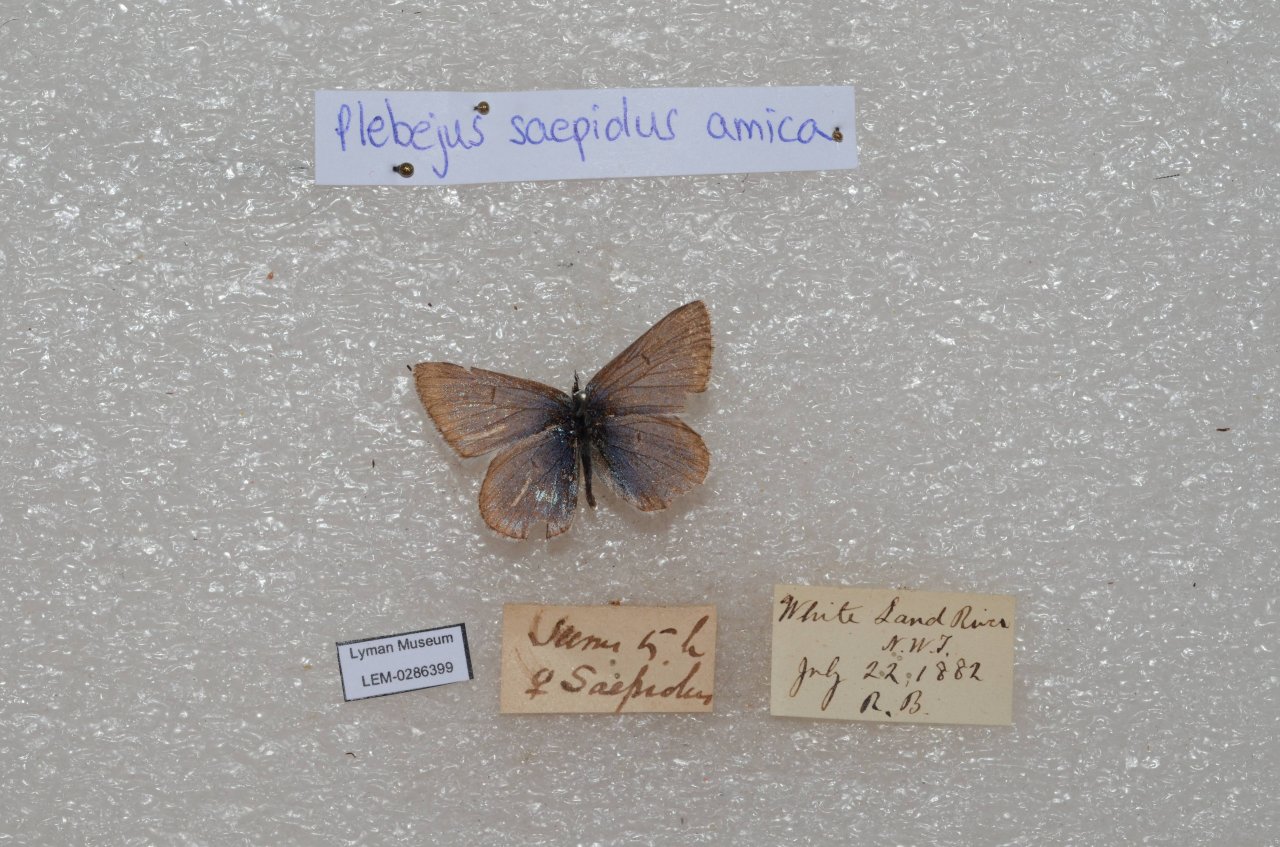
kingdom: Animalia
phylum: Arthropoda
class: Insecta
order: Lepidoptera
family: Lycaenidae
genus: Plebejus
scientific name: Plebejus saepiolus
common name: Greenish Blue
